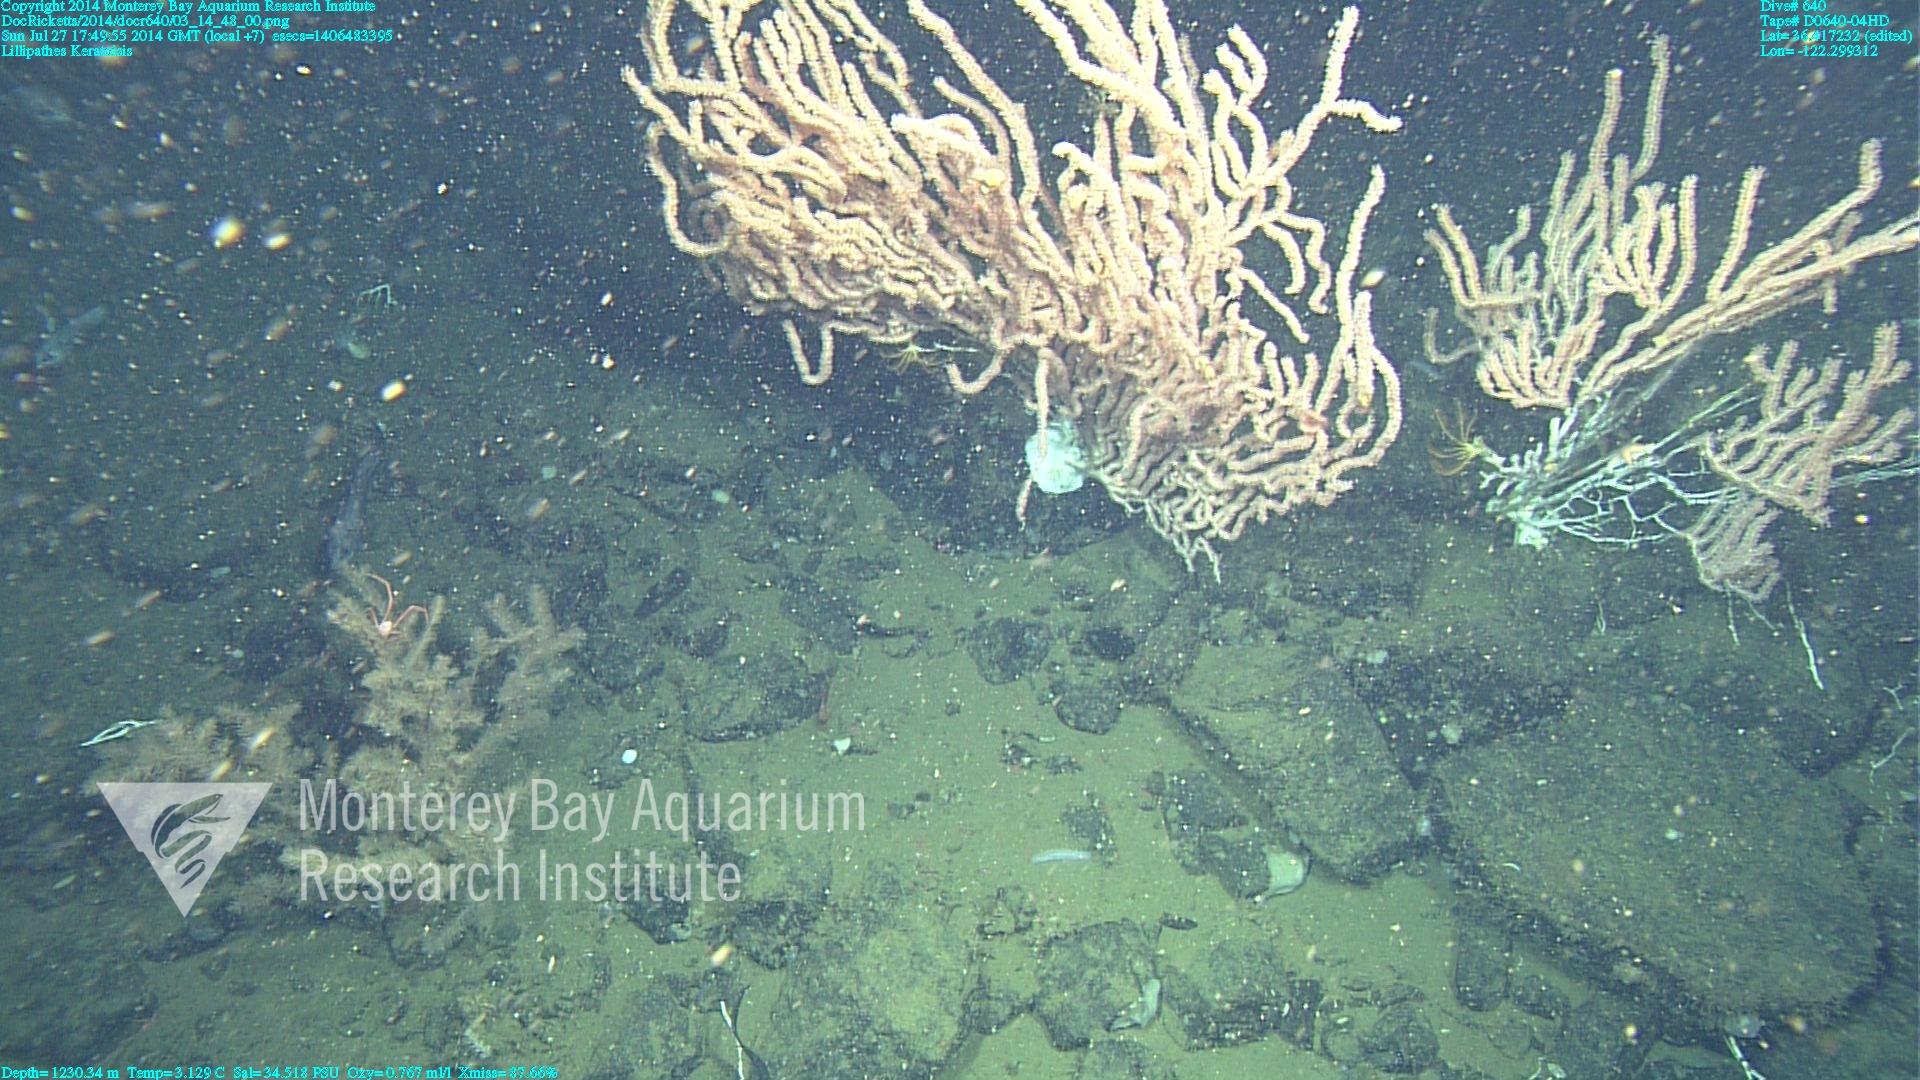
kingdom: Animalia
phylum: Cnidaria
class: Anthozoa
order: Antipatharia
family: Schizopathidae
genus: Lillipathes
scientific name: Lillipathes
